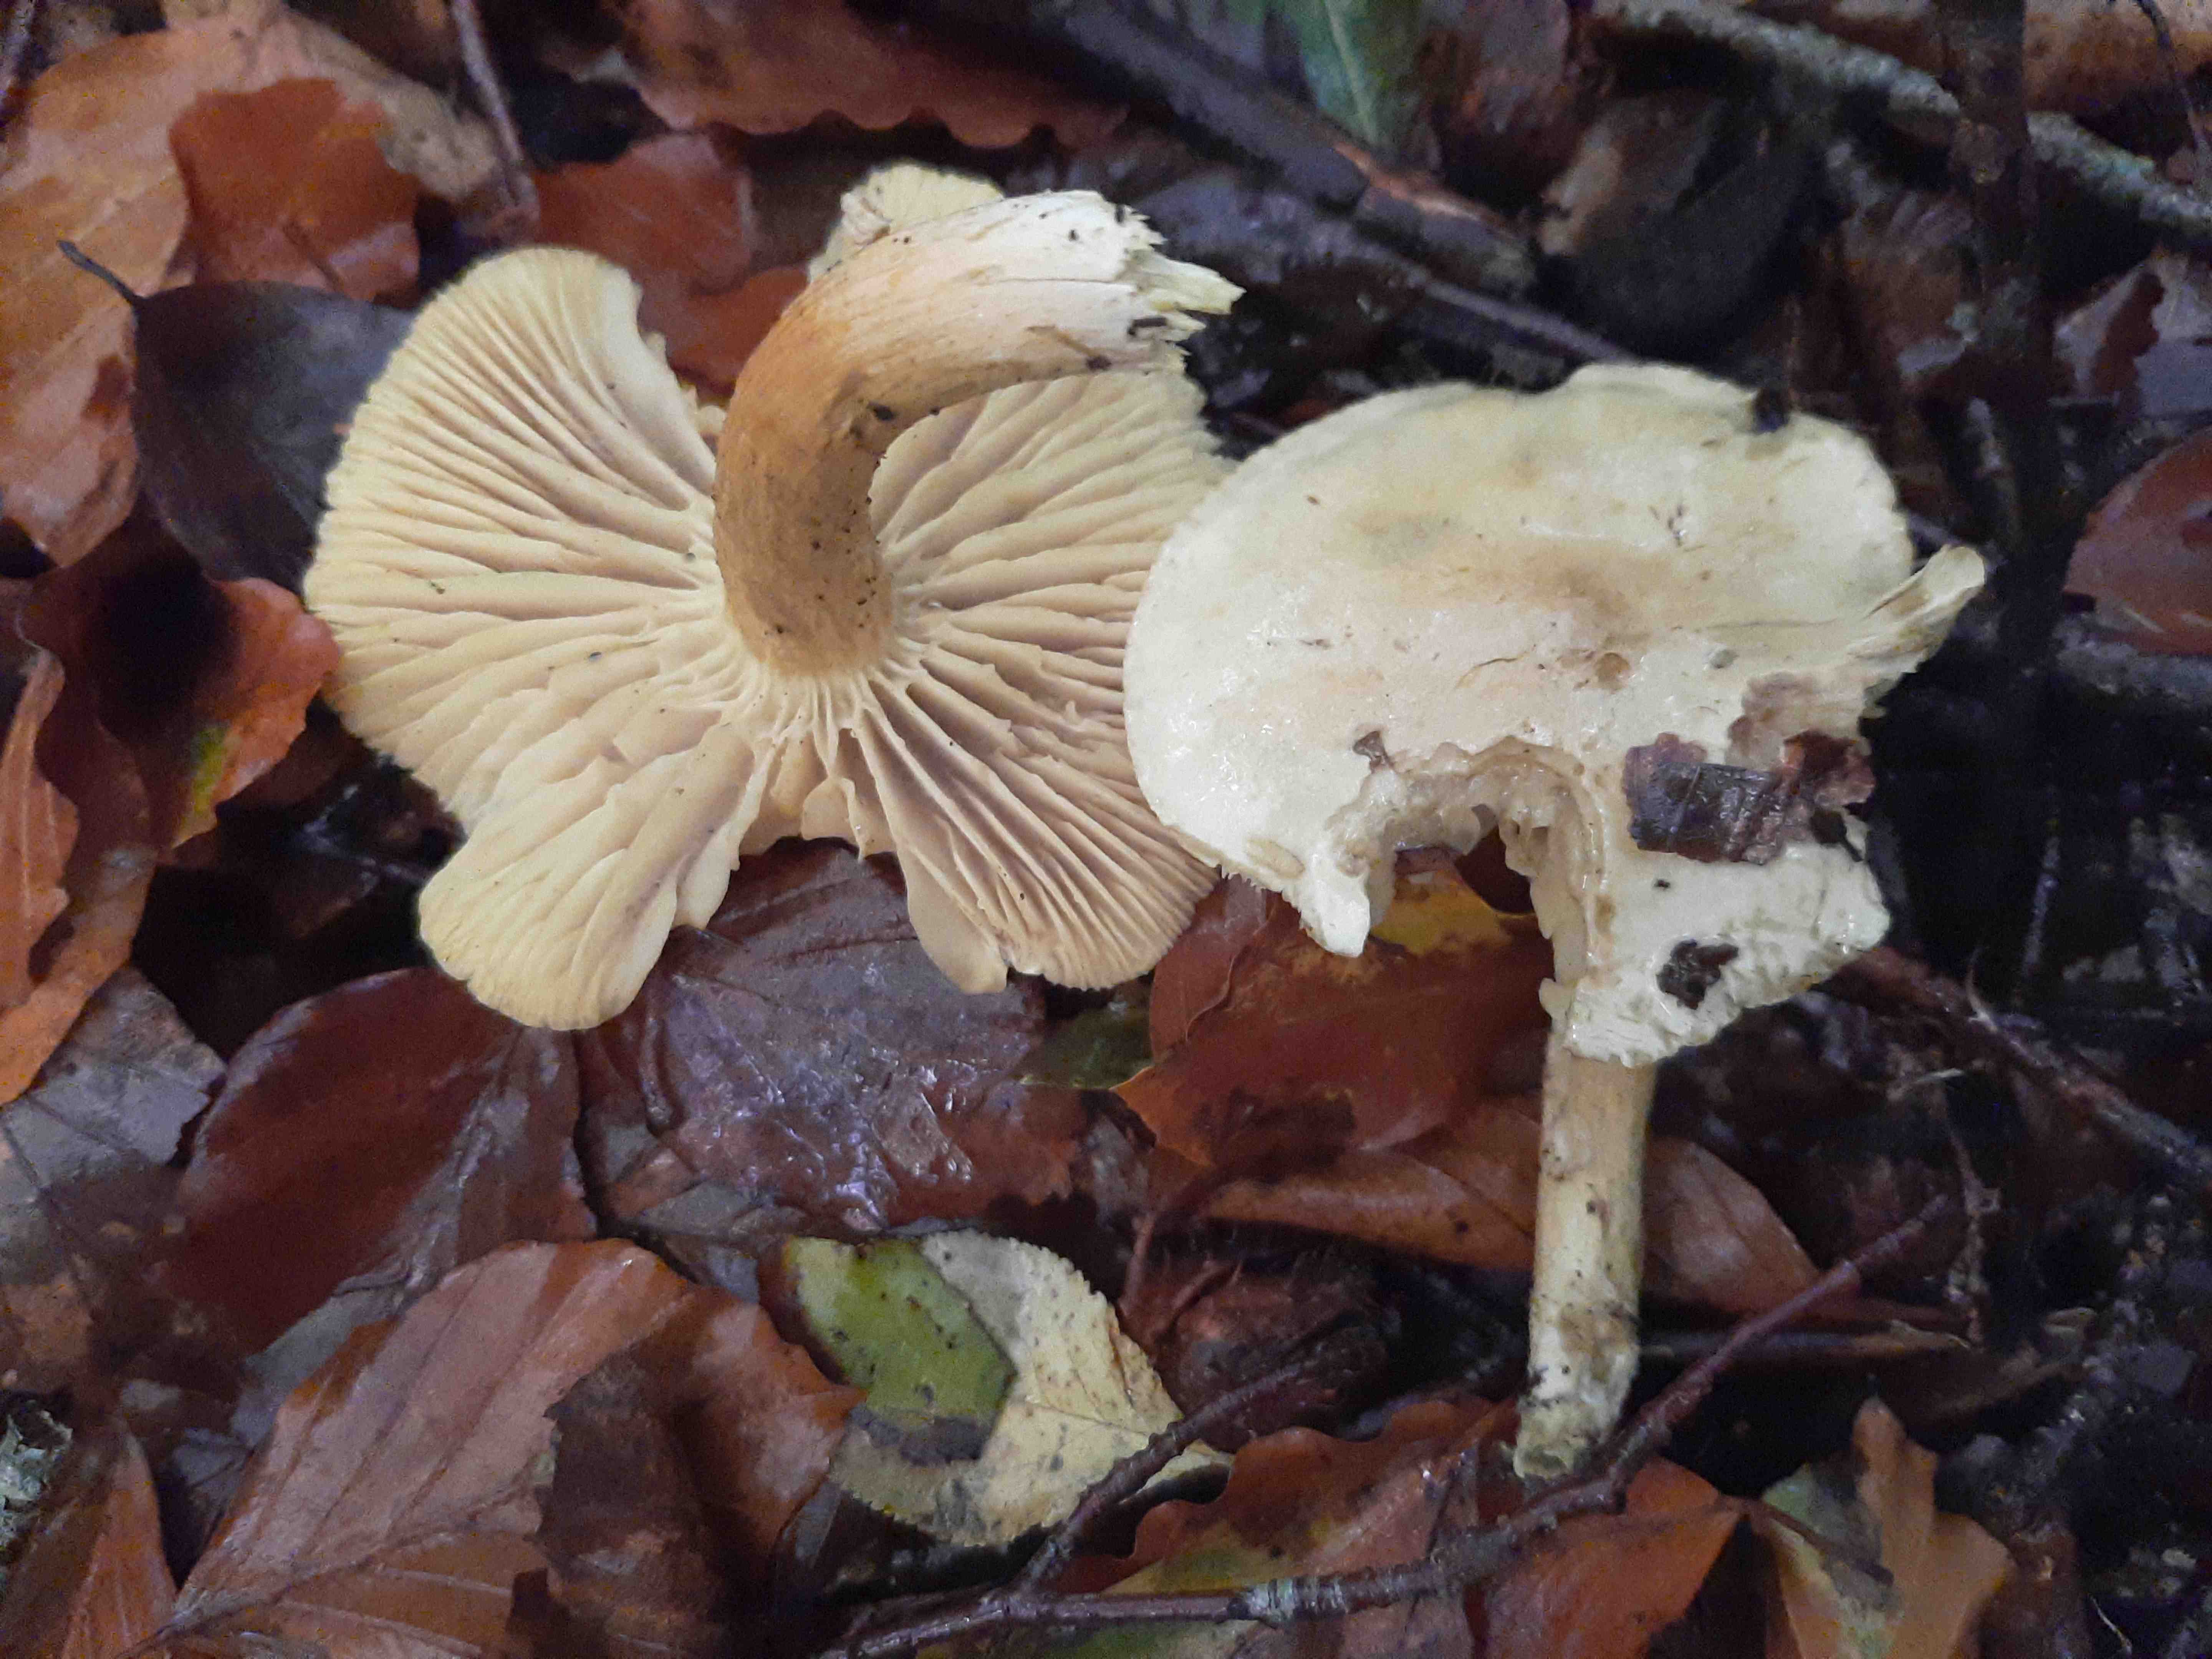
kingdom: Fungi
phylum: Basidiomycota
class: Agaricomycetes
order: Agaricales
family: Tricholomataceae
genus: Tricholoma
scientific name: Tricholoma sulphureum
